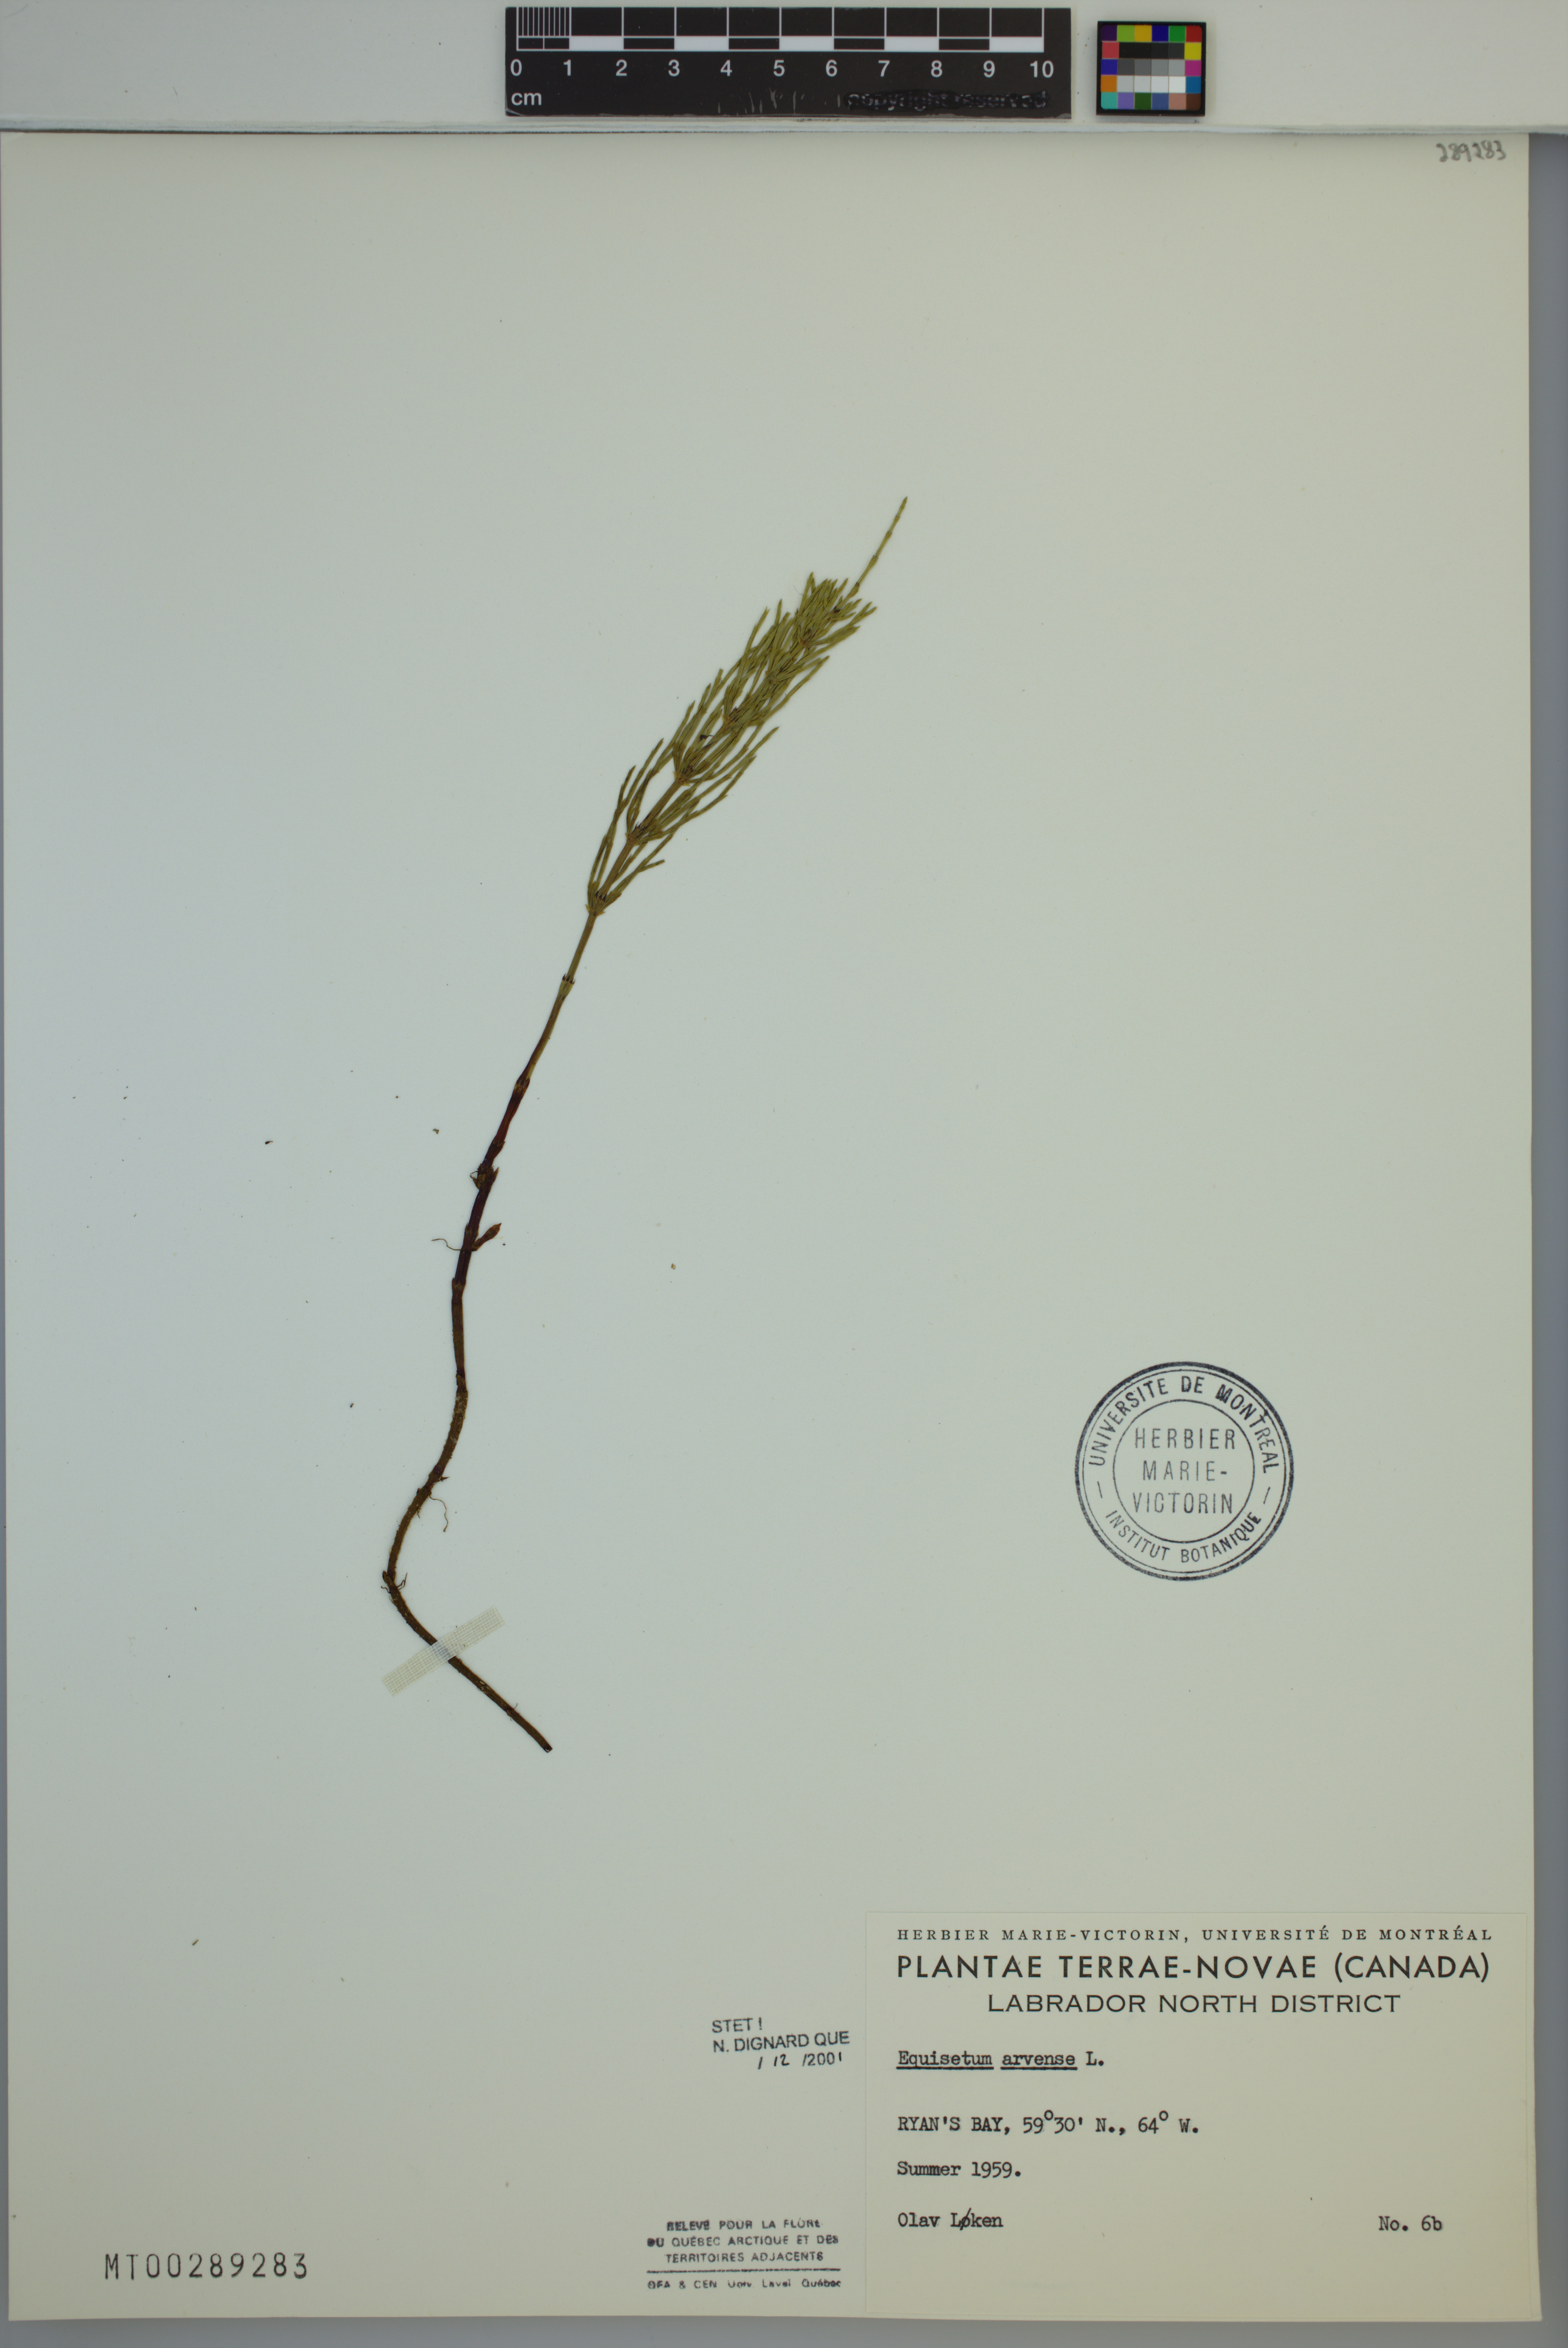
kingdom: Plantae
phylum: Tracheophyta
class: Polypodiopsida
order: Equisetales
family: Equisetaceae
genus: Equisetum
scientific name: Equisetum arvense
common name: Field horsetail
